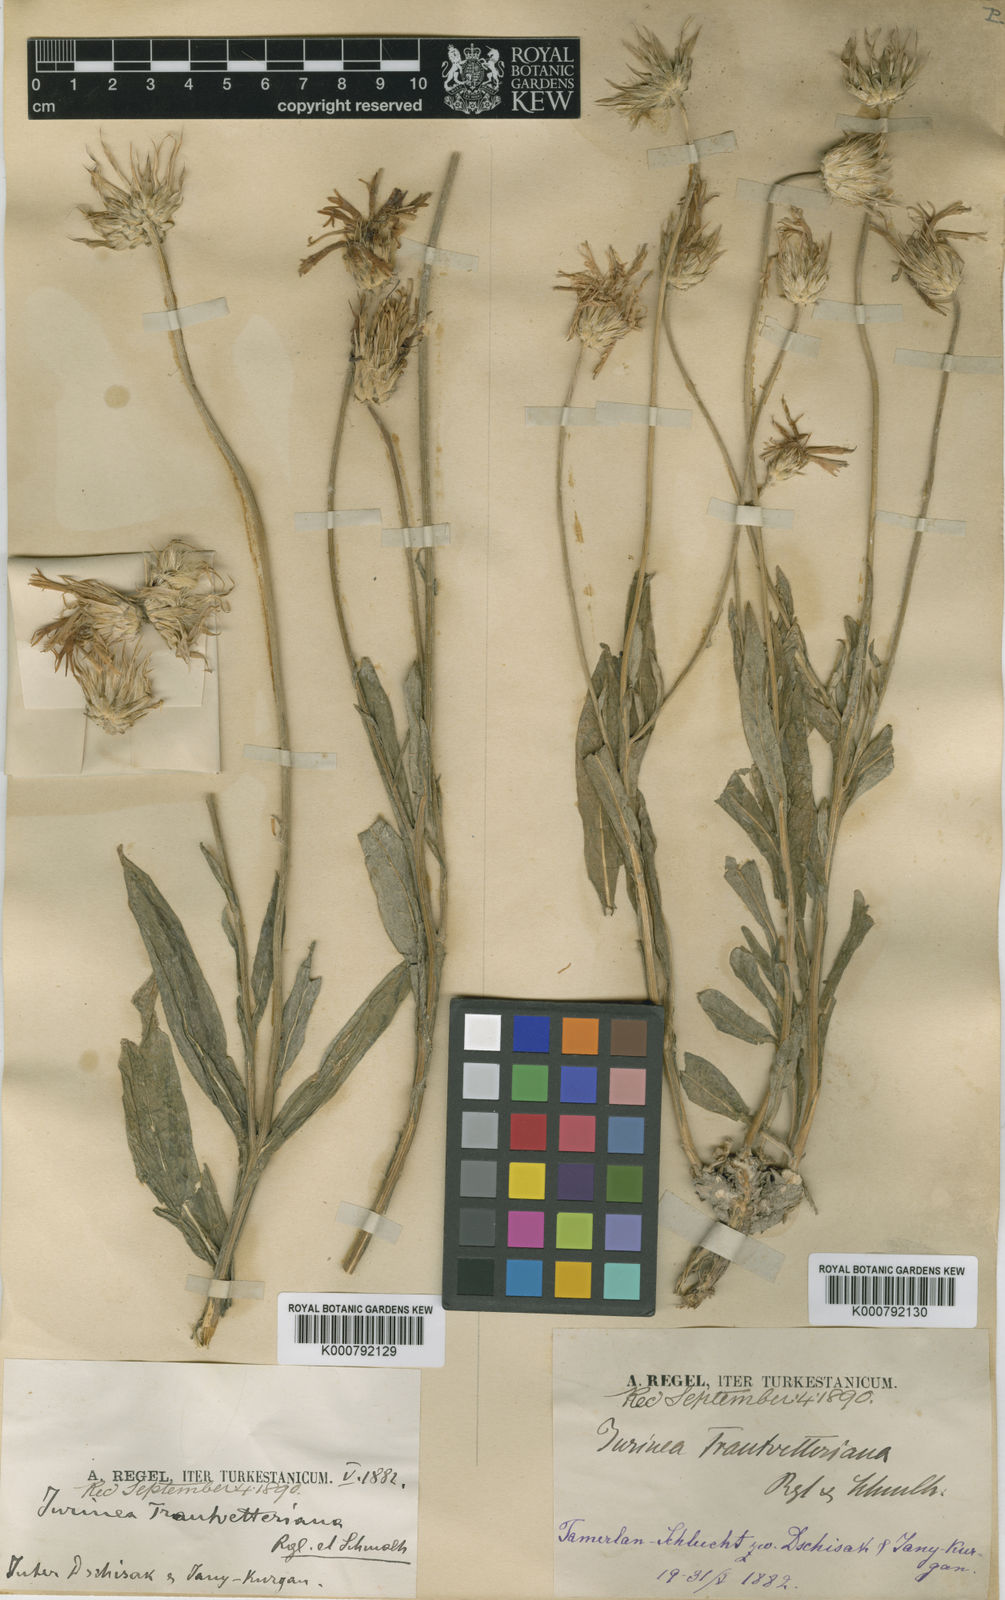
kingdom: Plantae
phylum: Tracheophyta
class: Magnoliopsida
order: Asterales
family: Asteraceae
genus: Jurinea
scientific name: Jurinea trautvetteriana
